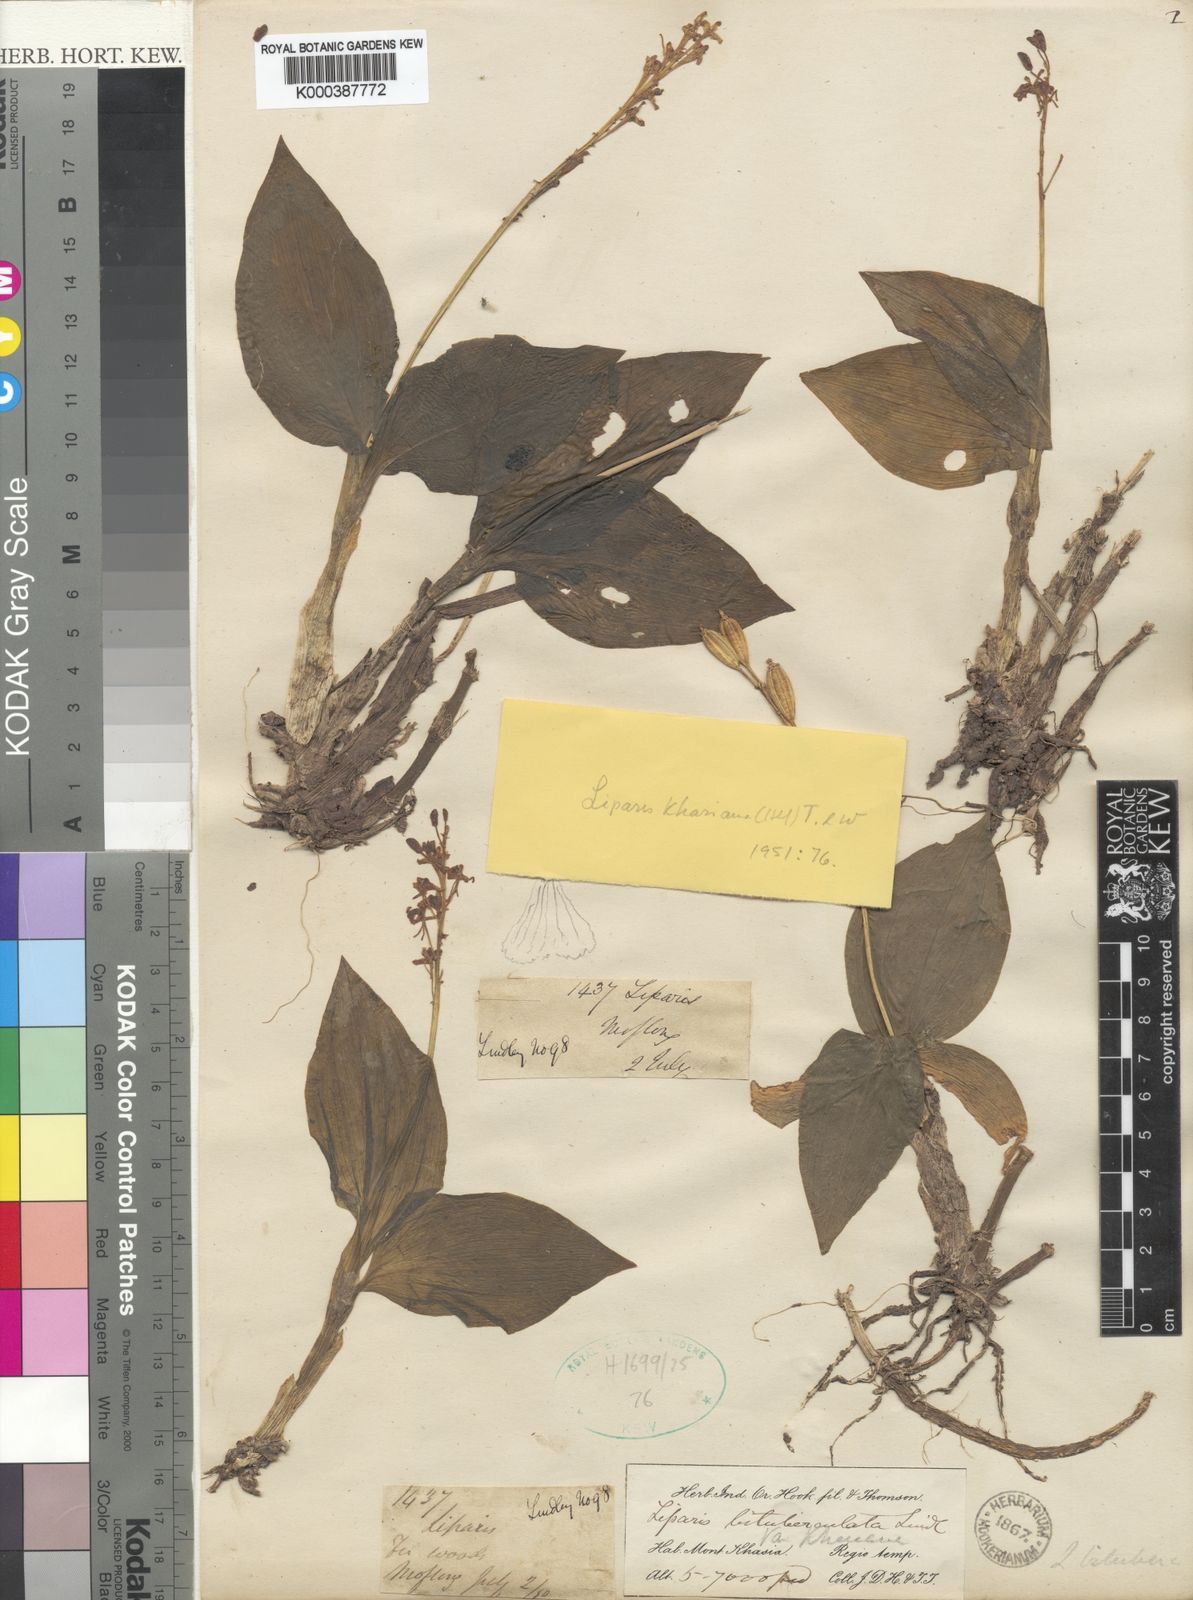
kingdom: Plantae
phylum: Tracheophyta
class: Liliopsida
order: Asparagales
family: Orchidaceae
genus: Liparis
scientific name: Liparis nervosa
